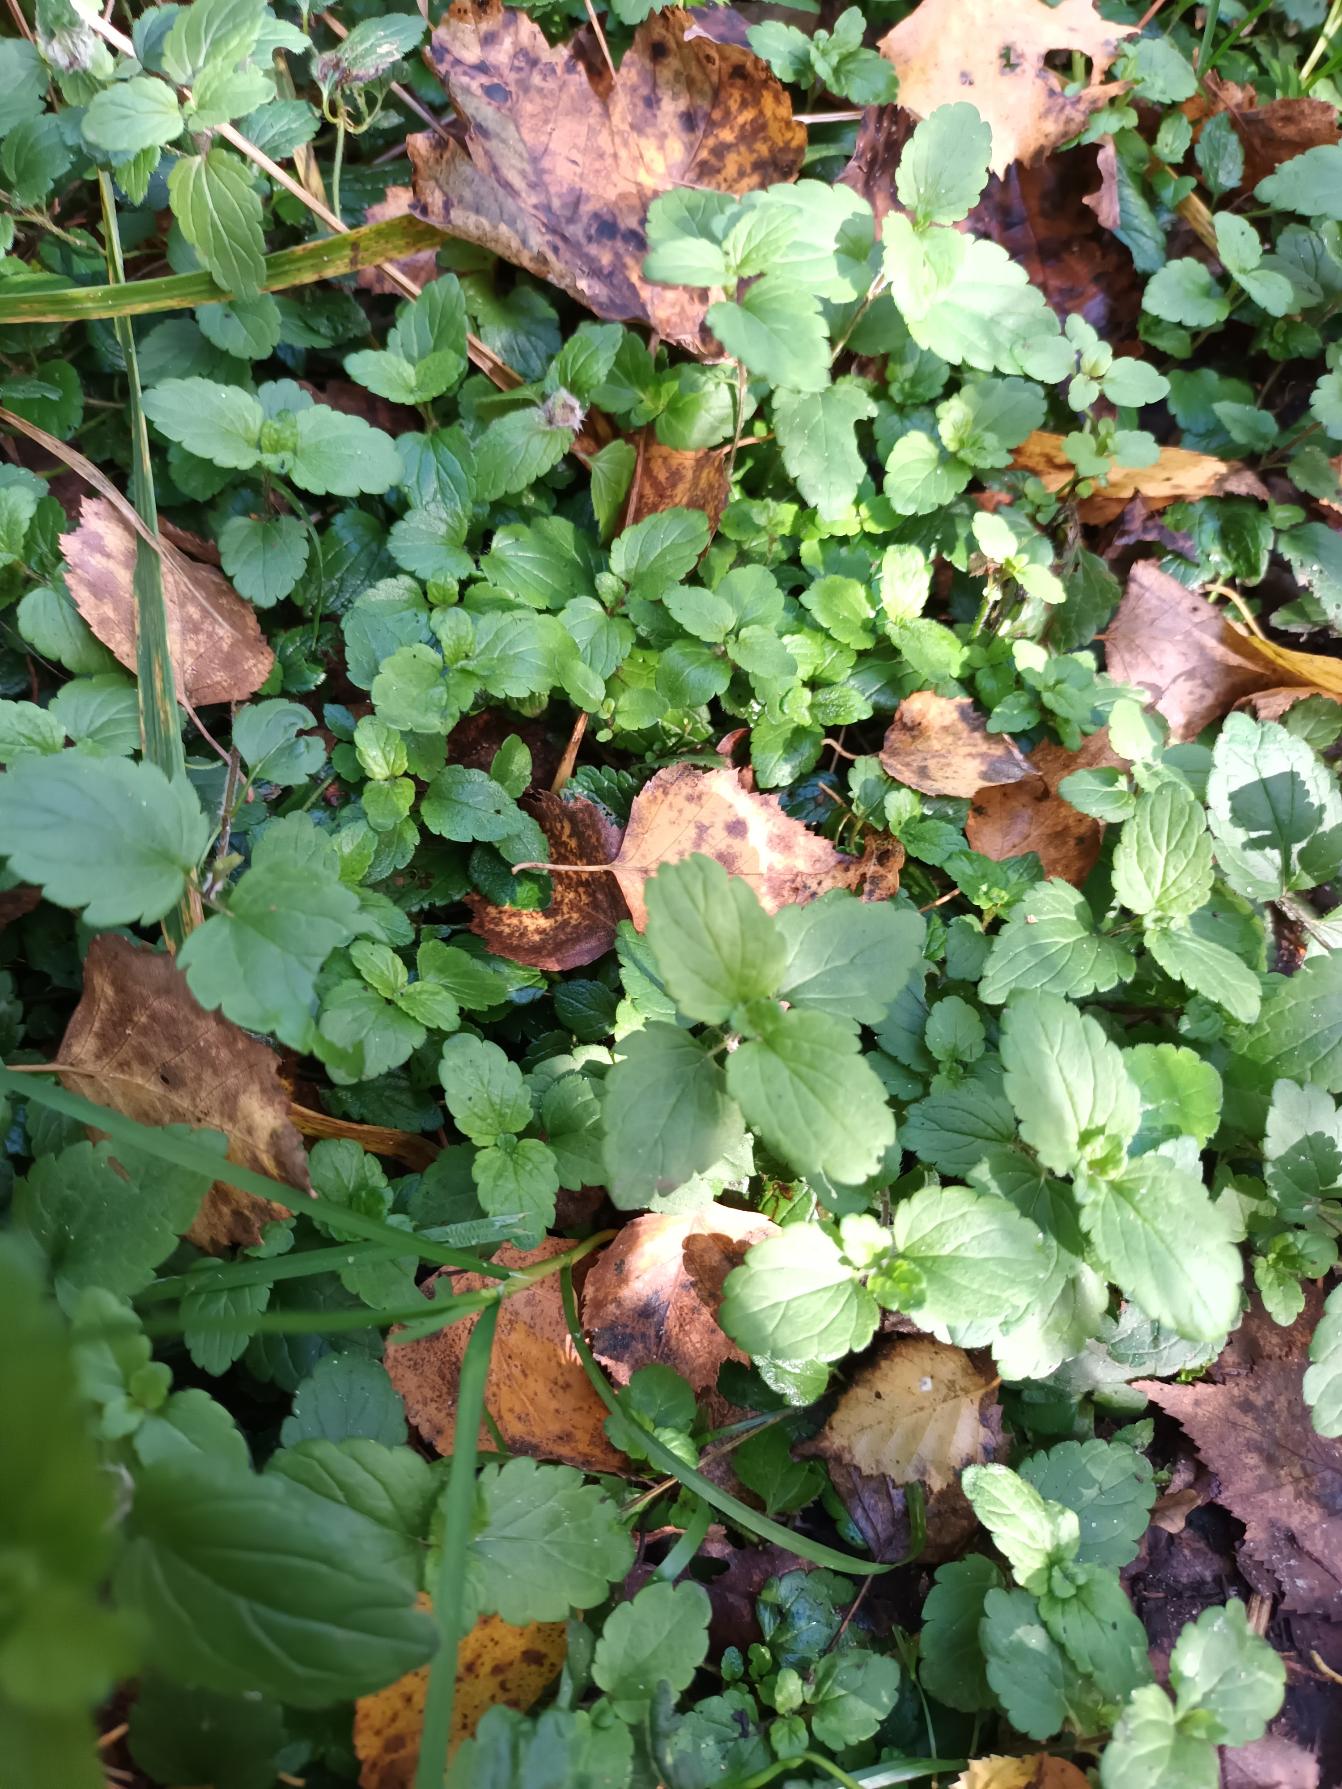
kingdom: Plantae
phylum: Tracheophyta
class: Magnoliopsida
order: Lamiales
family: Plantaginaceae
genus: Veronica
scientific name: Veronica chamaedrys
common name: Tveskægget ærenpris
